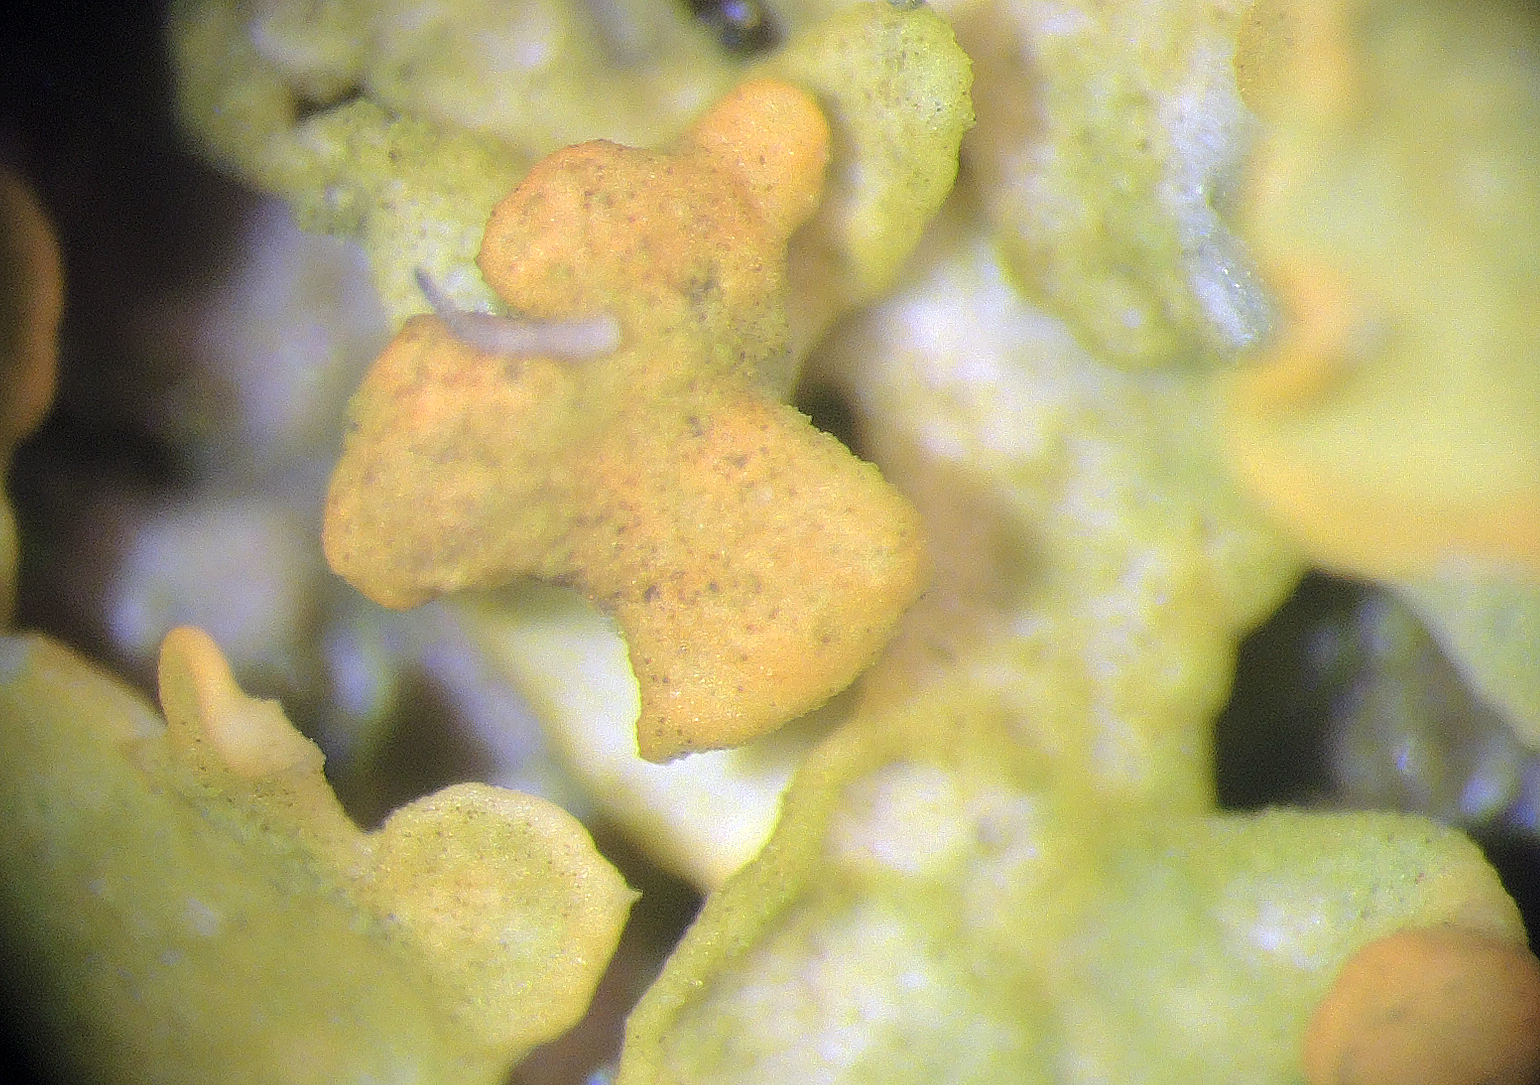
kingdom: Fungi
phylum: Ascomycota
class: Eurotiomycetes
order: Verrucariales
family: Verrucariaceae
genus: Telogalla
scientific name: Telogalla olivieri
